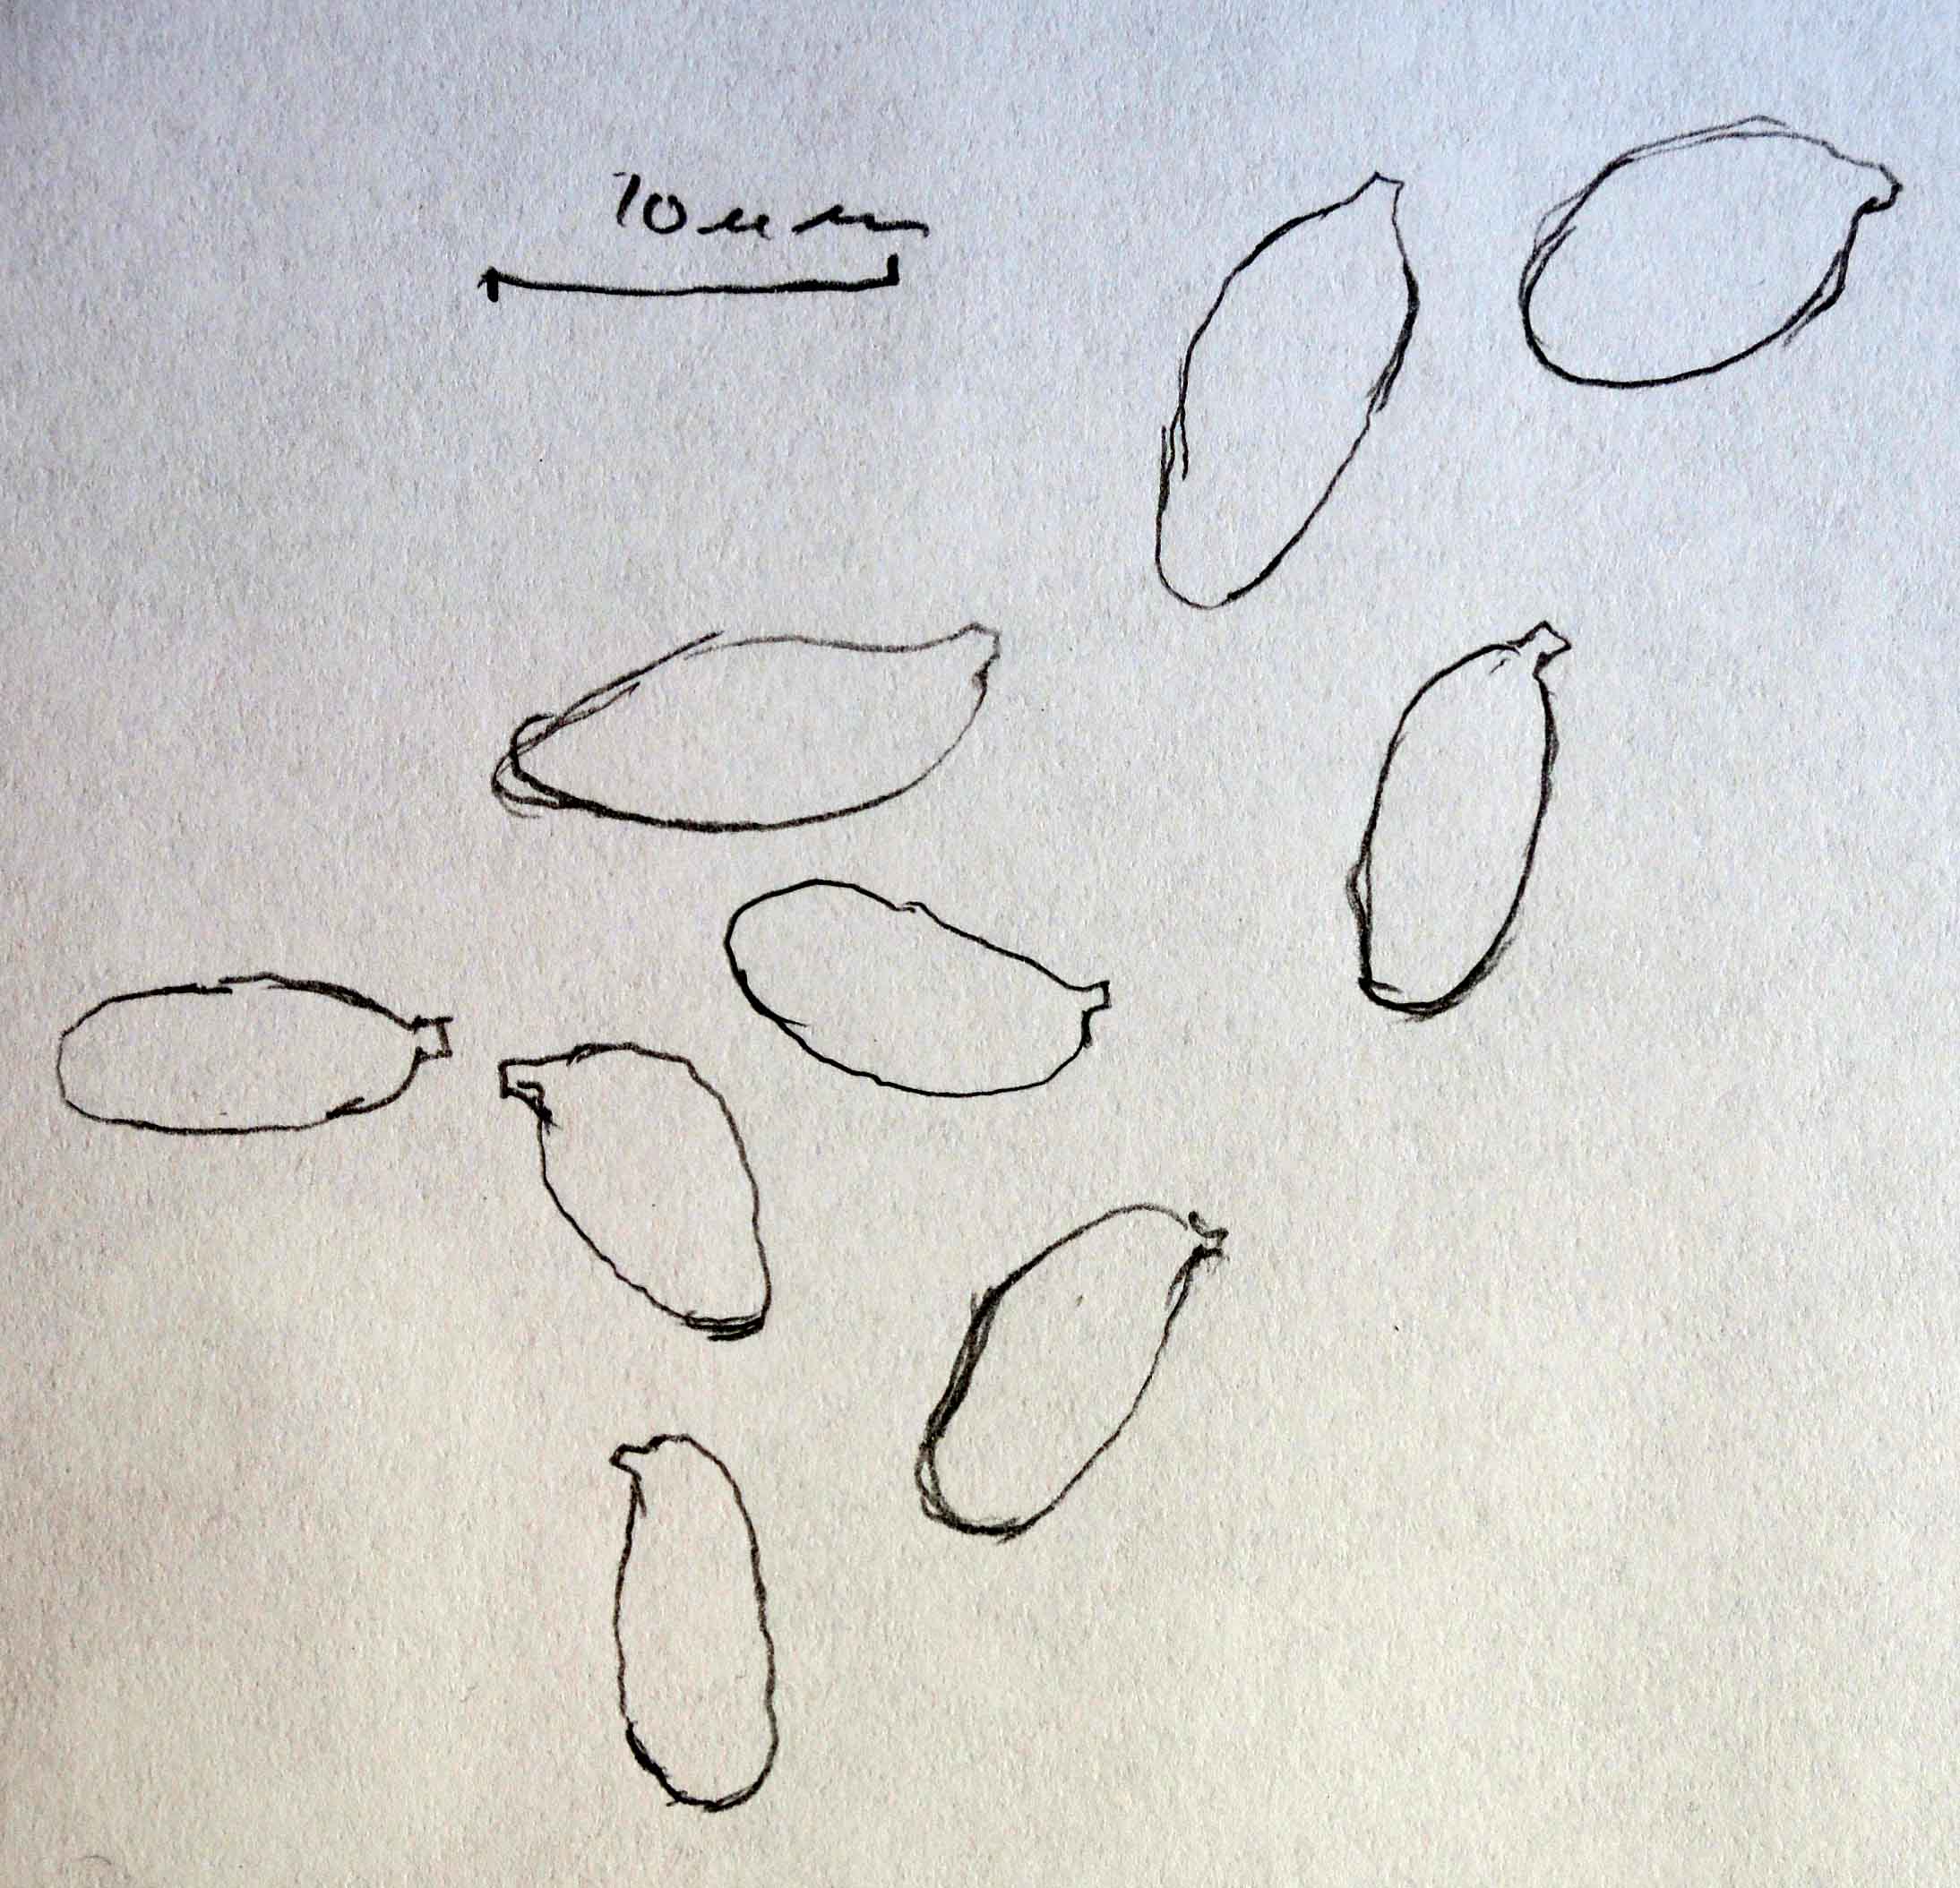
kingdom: Fungi
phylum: Basidiomycota
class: Agaricomycetes
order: Agaricales
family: Hygrophoraceae
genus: Arrhenia
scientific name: Arrhenia gerardiana
